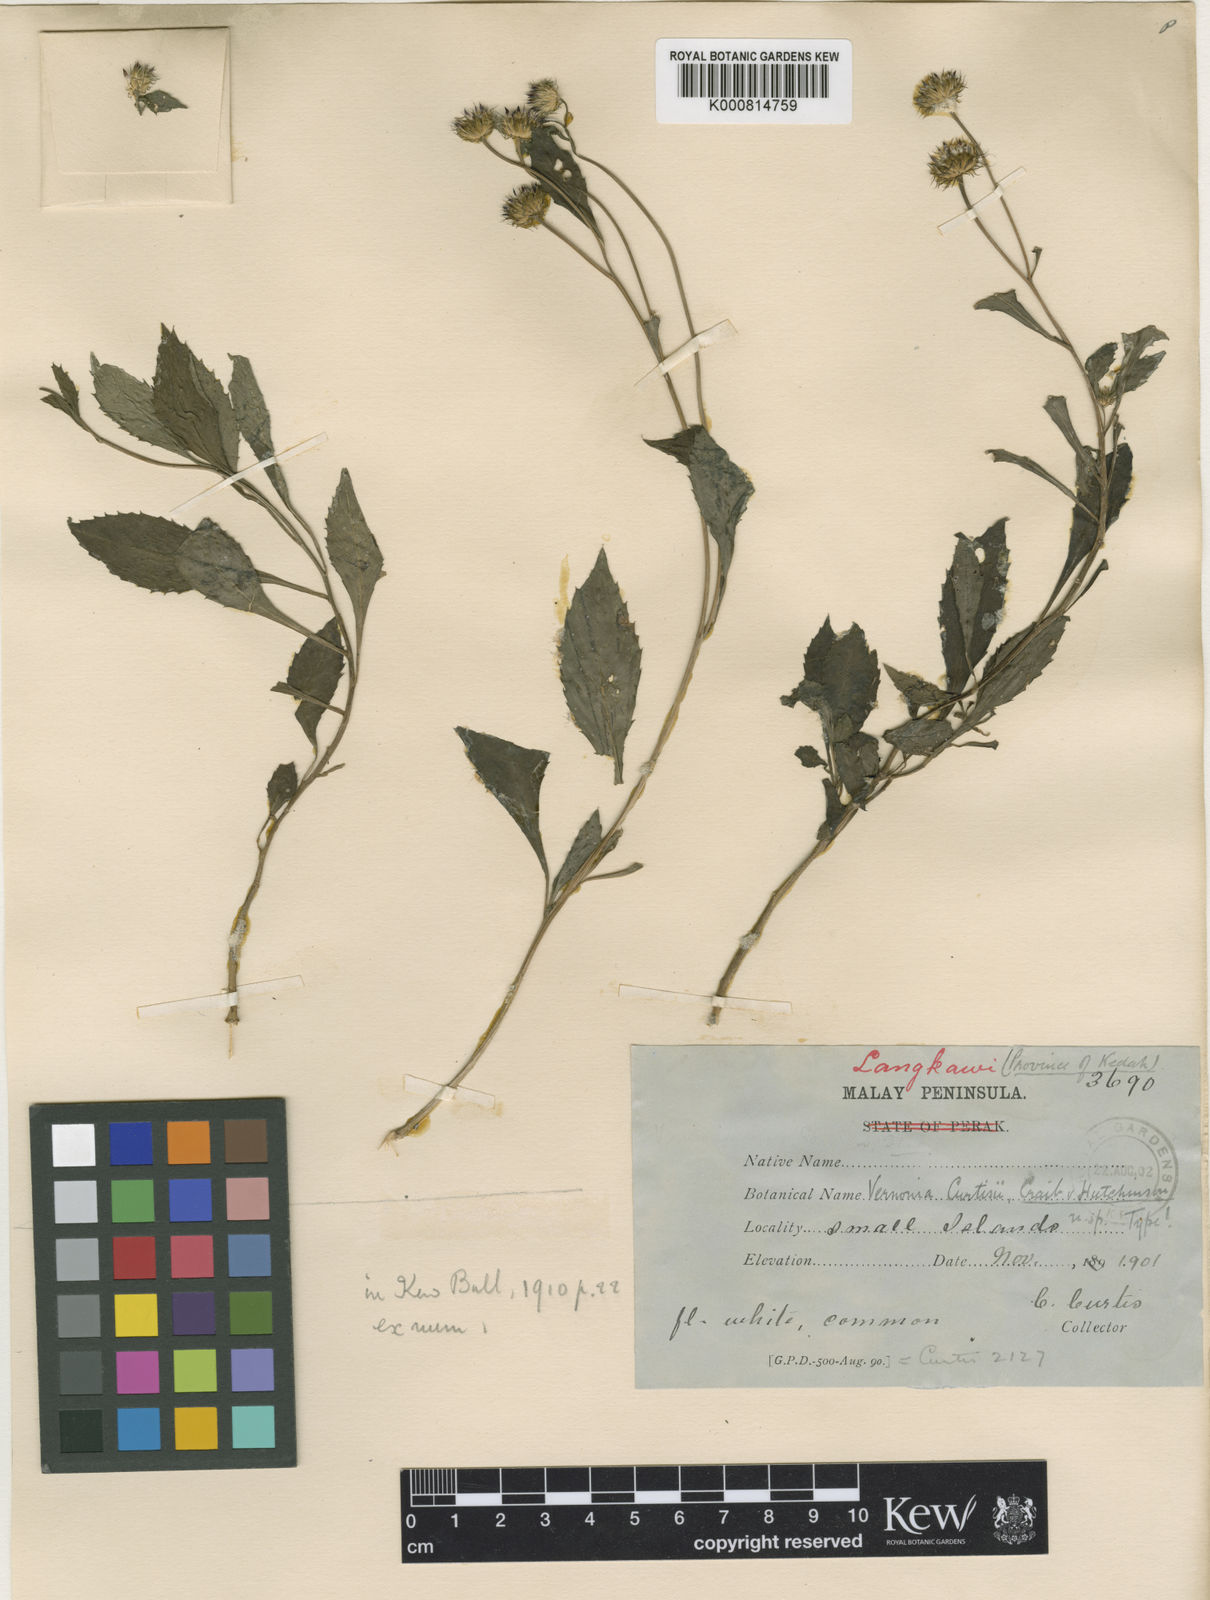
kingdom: Plantae
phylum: Tracheophyta
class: Magnoliopsida
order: Asterales
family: Asteraceae
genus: Koyamasia
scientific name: Koyamasia curtisii
